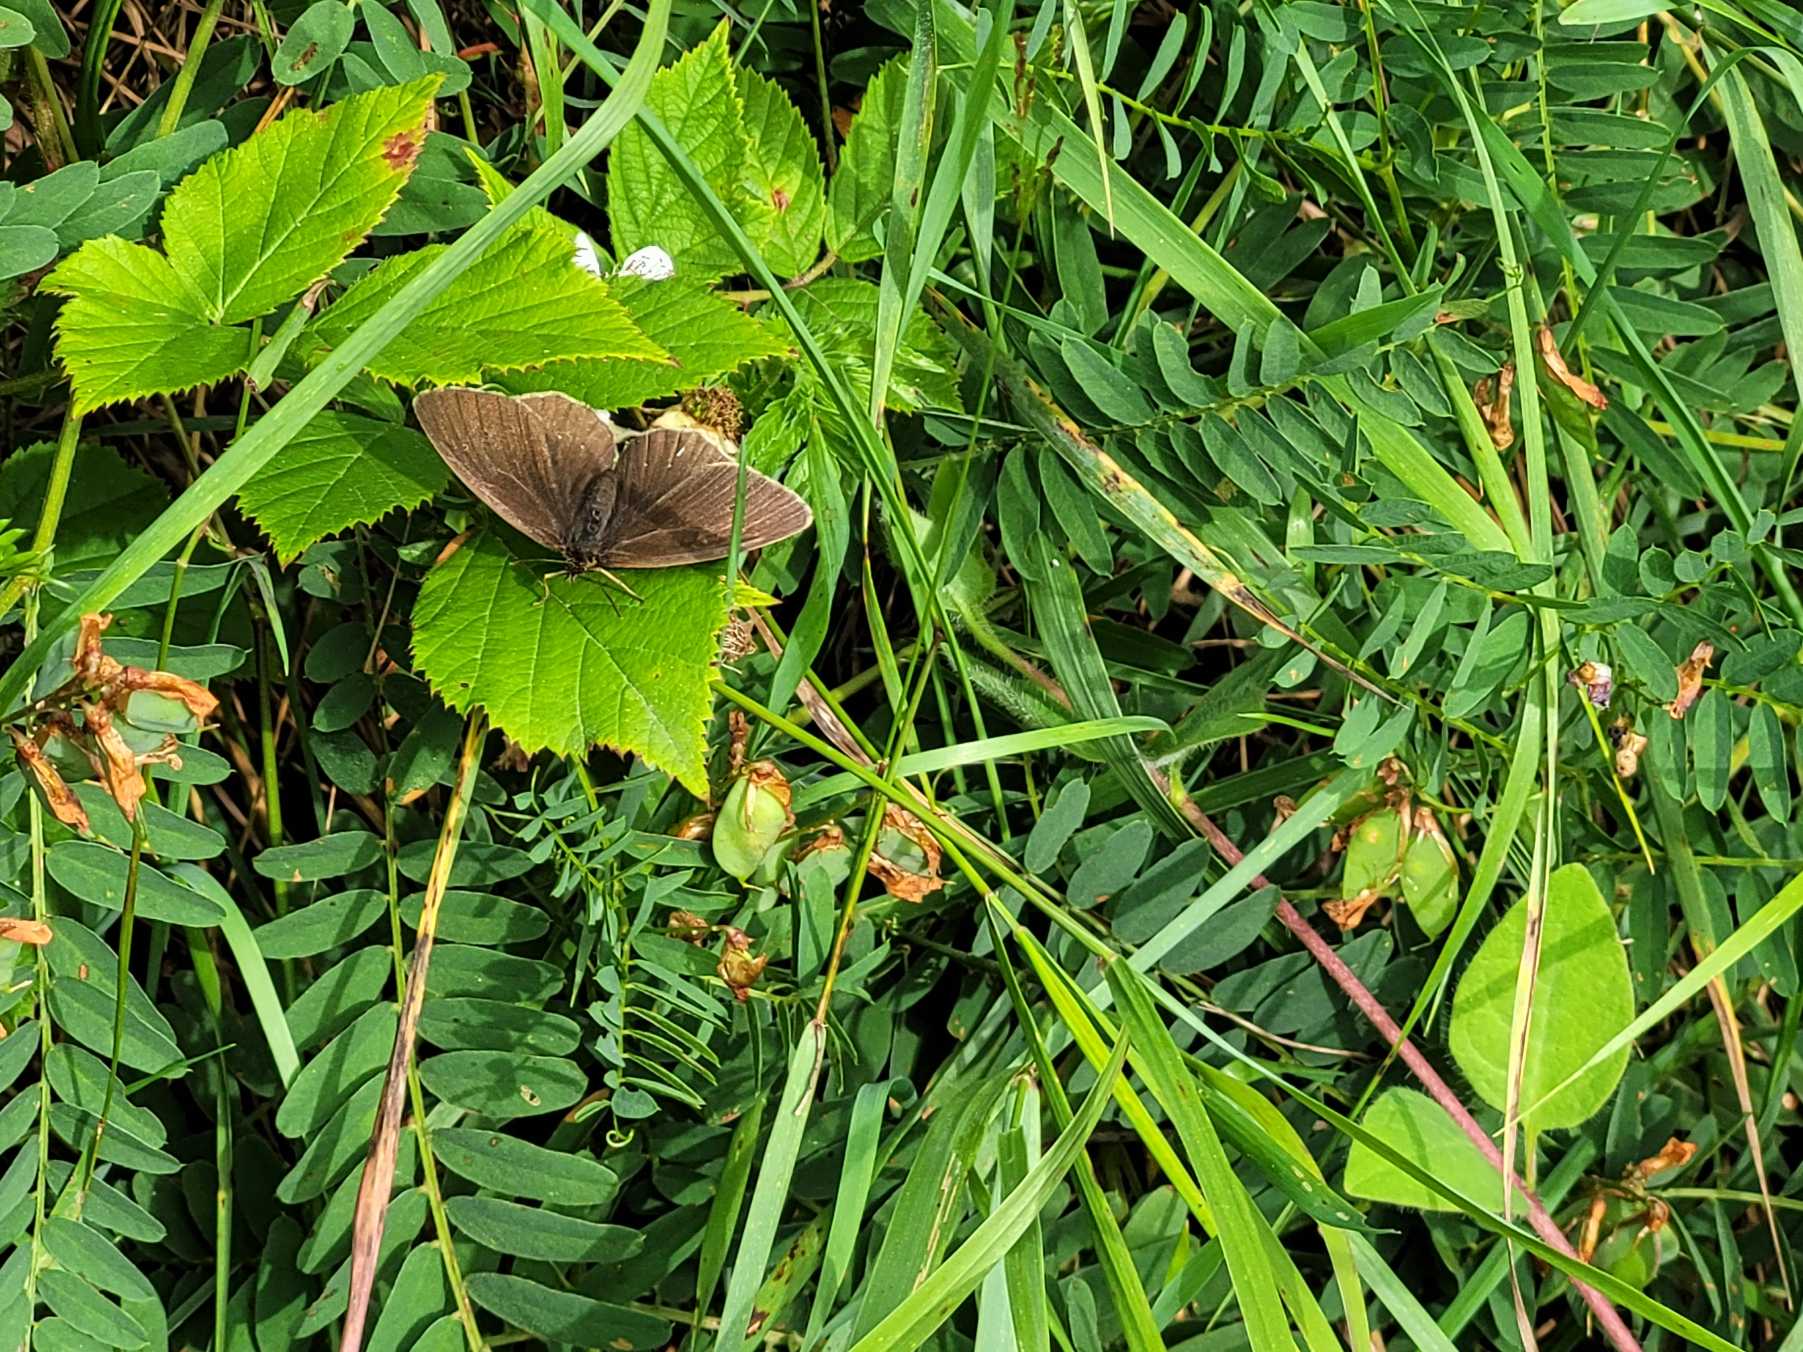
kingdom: Animalia
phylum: Arthropoda
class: Insecta
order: Lepidoptera
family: Nymphalidae
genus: Aphantopus
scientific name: Aphantopus hyperantus
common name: Engrandøje
